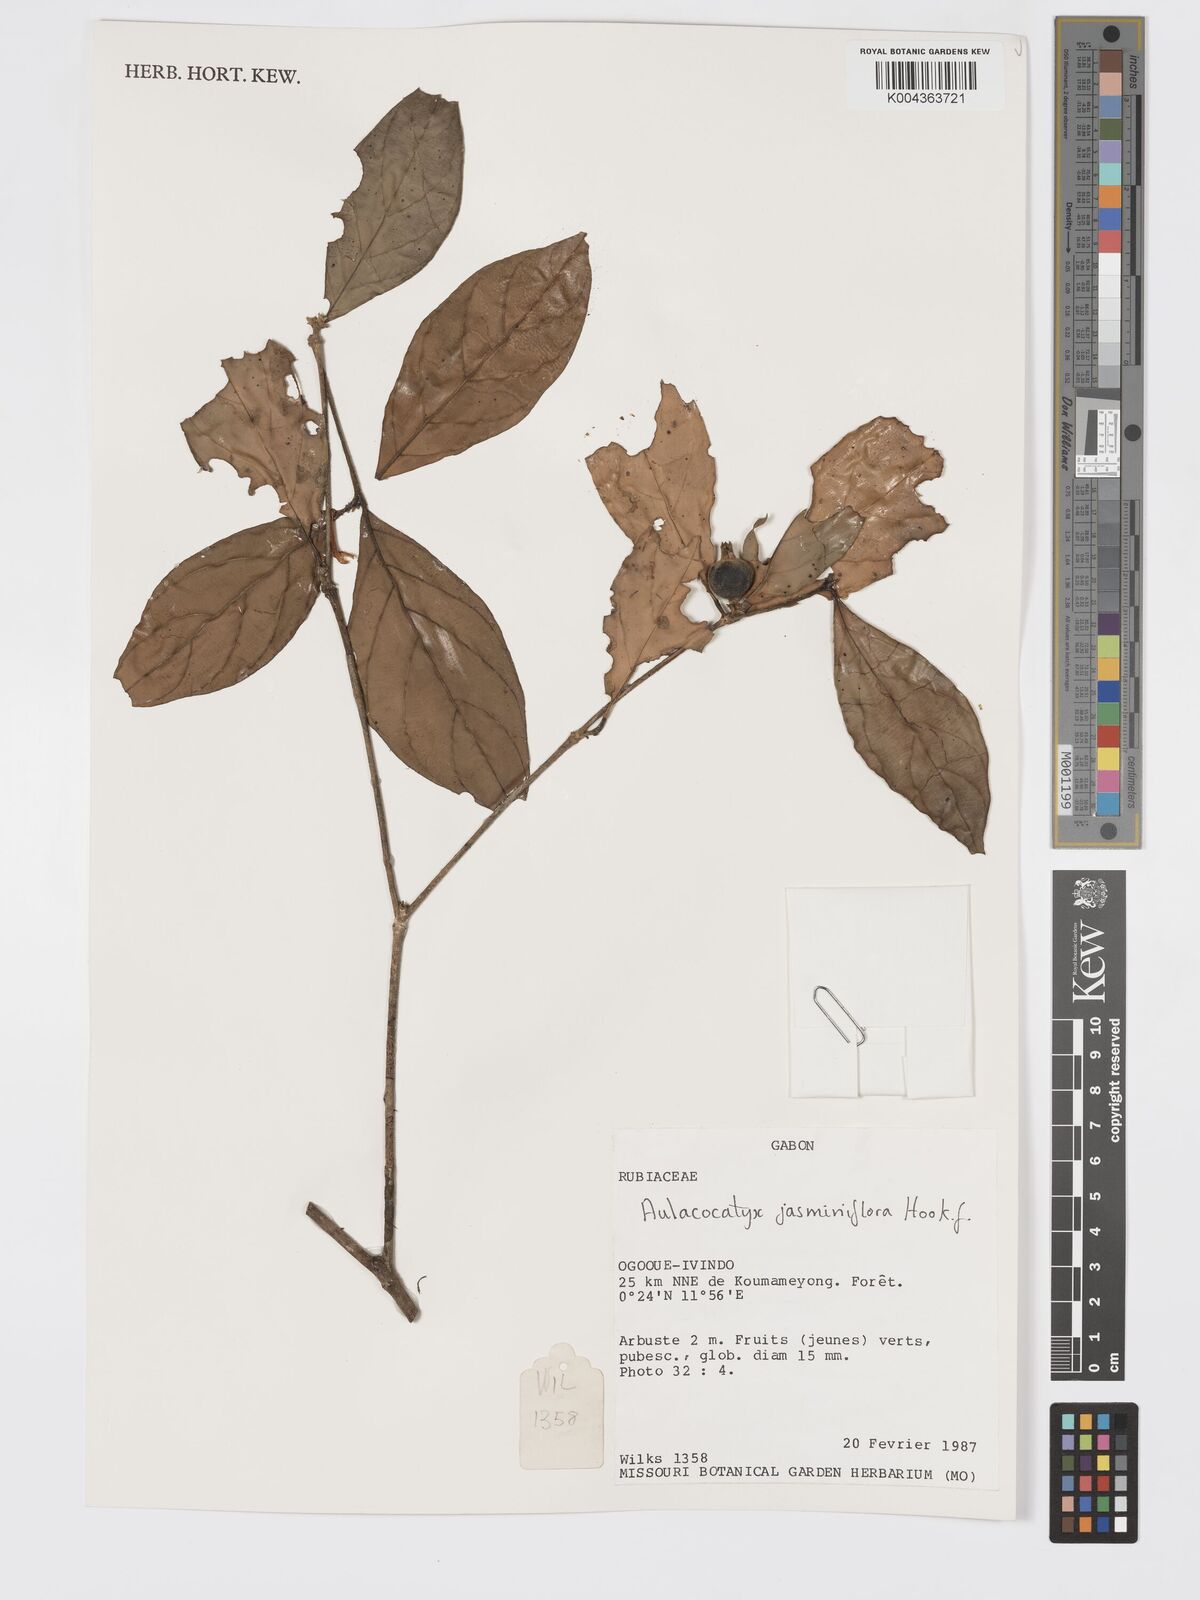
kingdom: Plantae
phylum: Tracheophyta
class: Magnoliopsida
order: Gentianales
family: Rubiaceae
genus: Aulacocalyx
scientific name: Aulacocalyx jasminiflora
